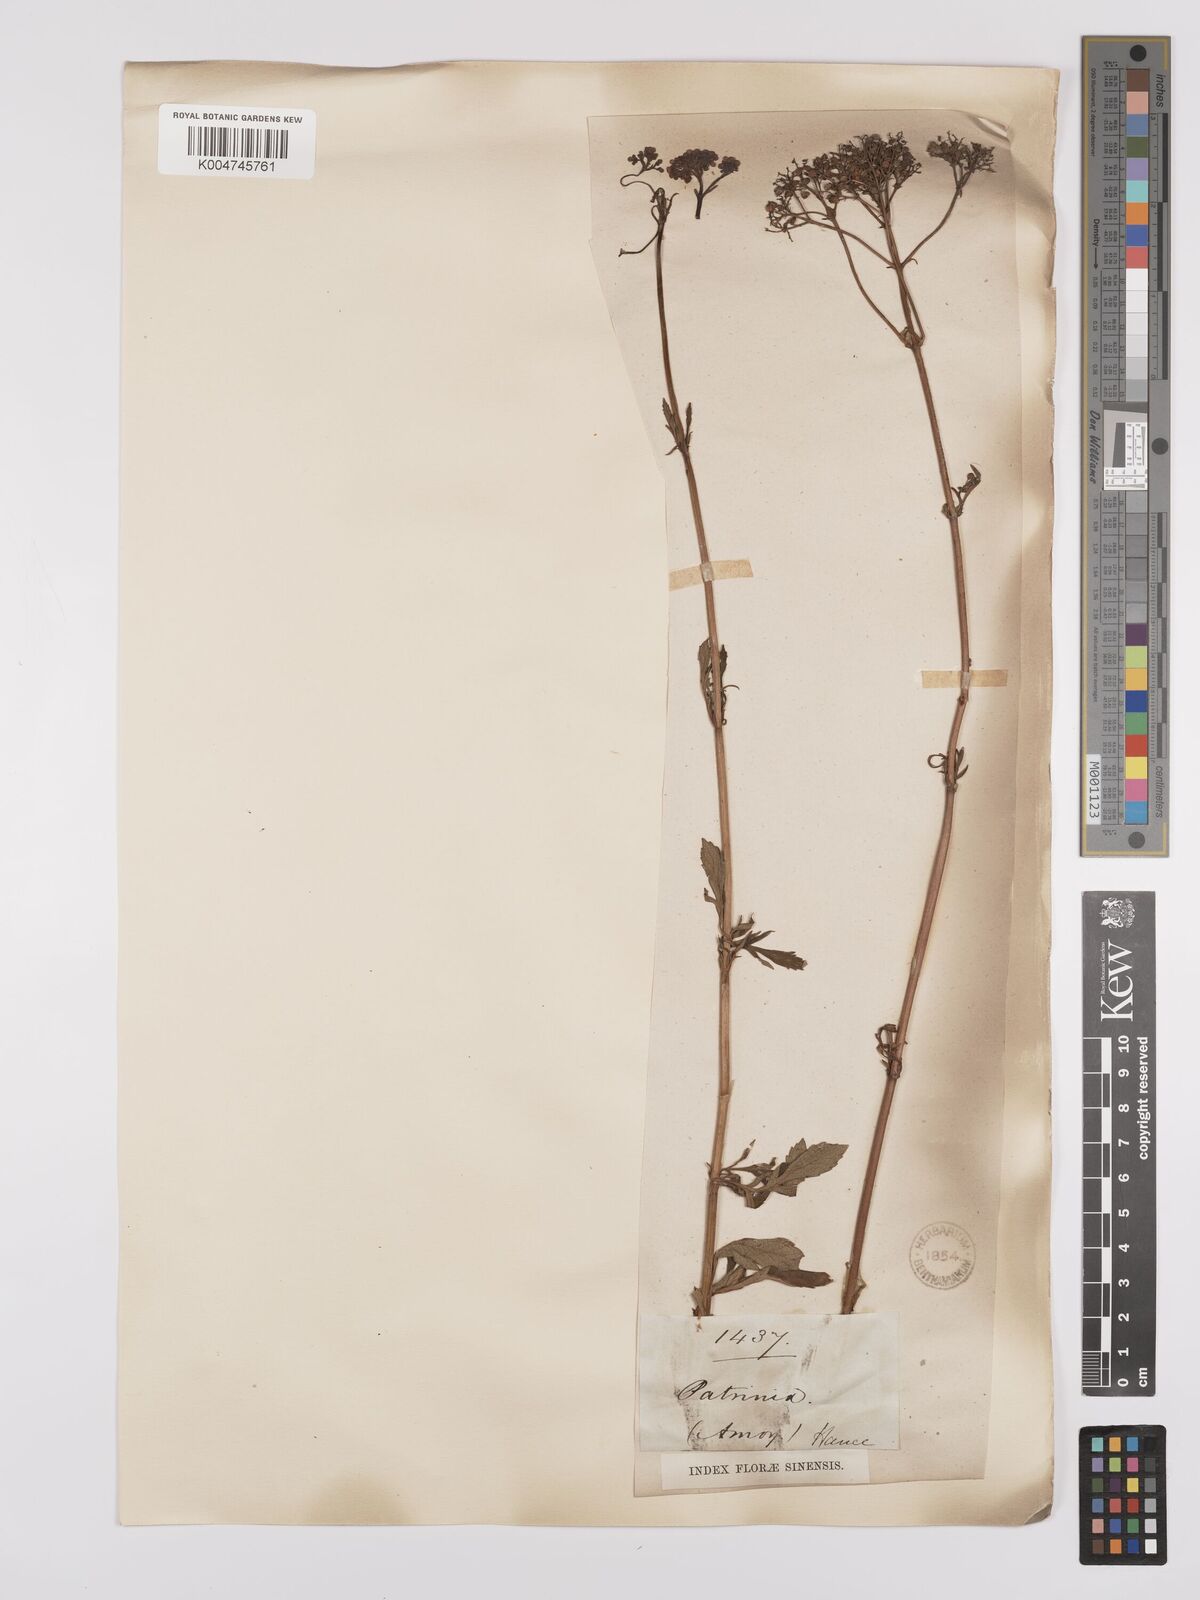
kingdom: Plantae
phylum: Tracheophyta
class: Magnoliopsida
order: Dipsacales
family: Caprifoliaceae
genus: Patrinia
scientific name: Patrinia
